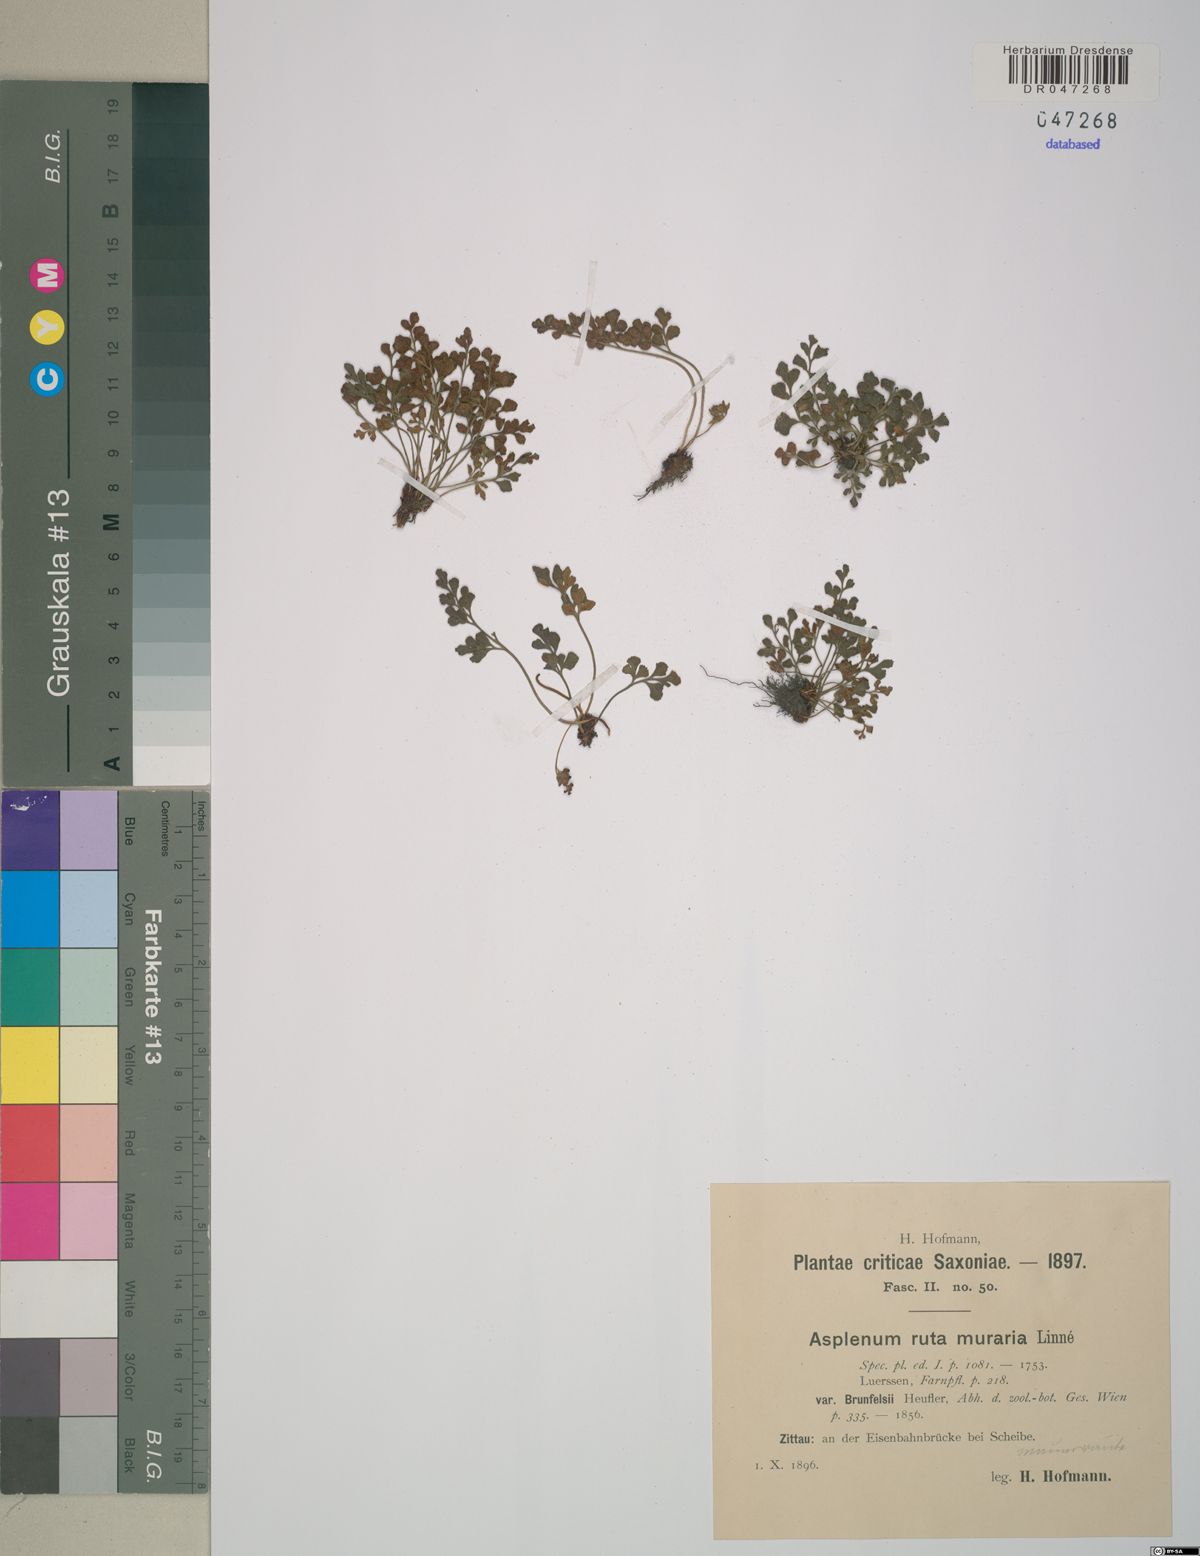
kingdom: Plantae
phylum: Tracheophyta
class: Polypodiopsida
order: Polypodiales
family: Aspleniaceae
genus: Asplenium
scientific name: Asplenium ruta-muraria
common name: Wall-rue
